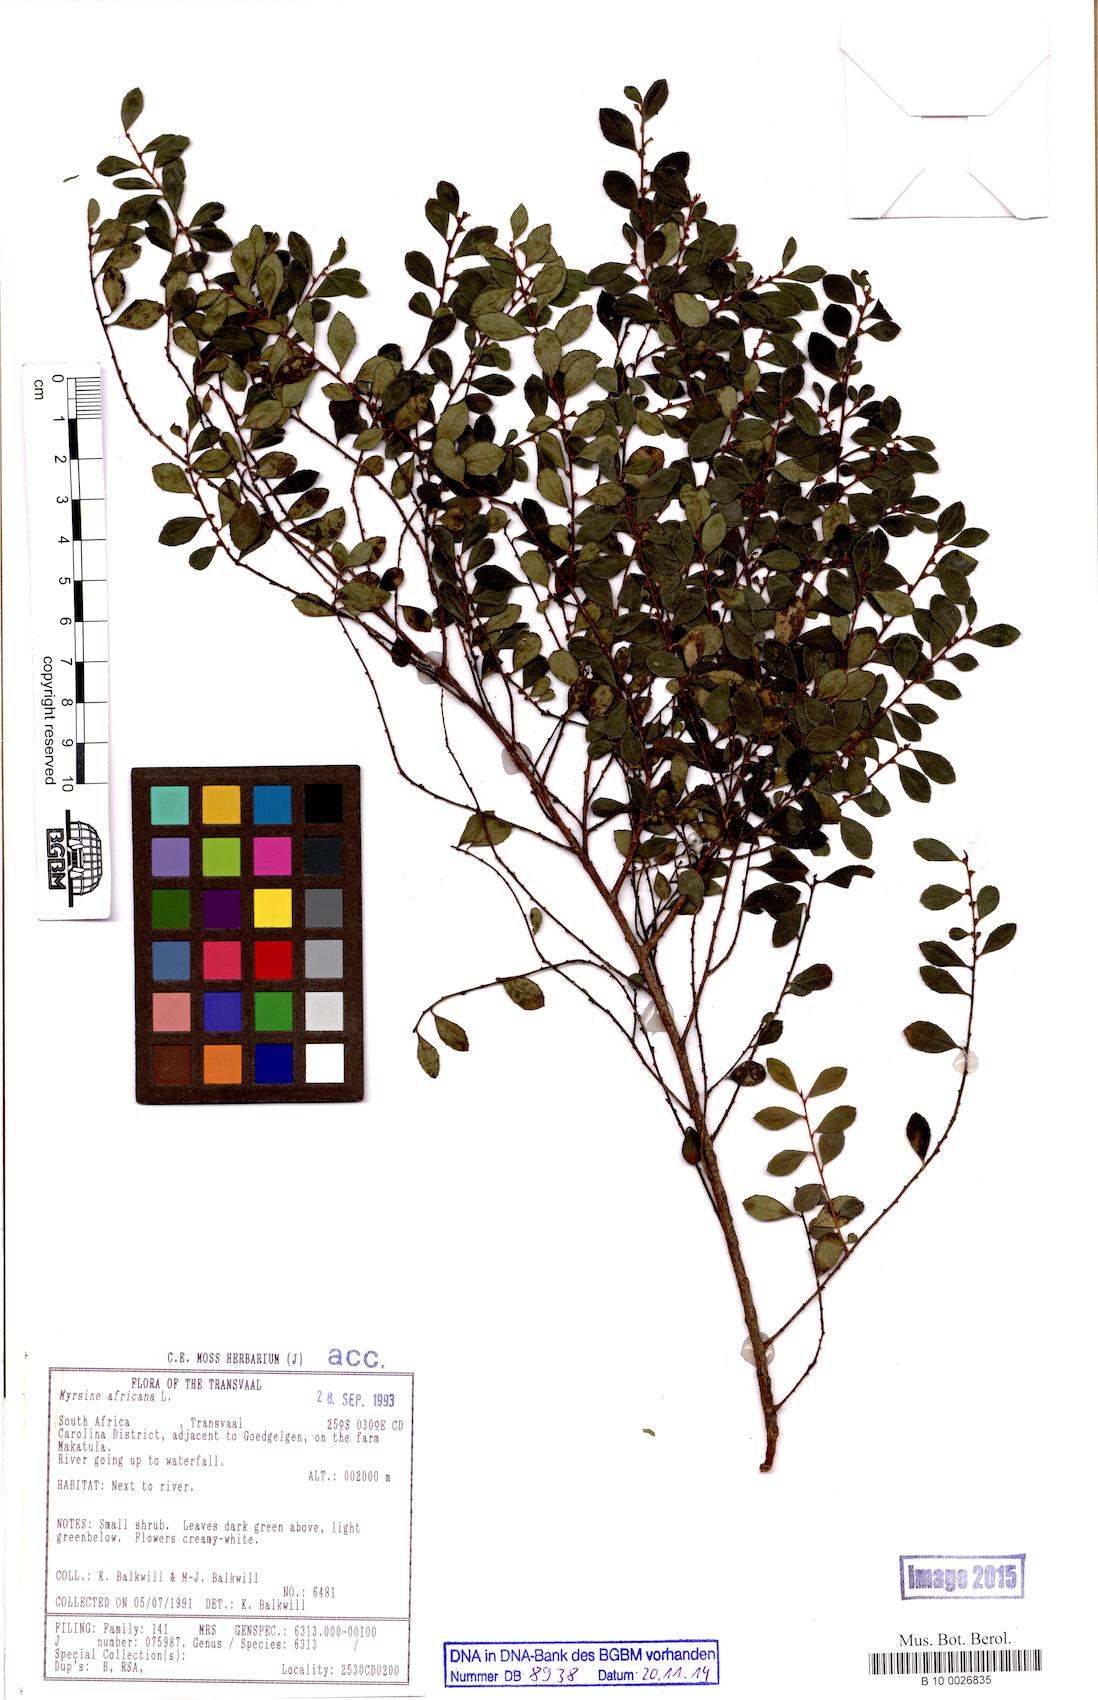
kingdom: Plantae
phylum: Tracheophyta
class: Magnoliopsida
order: Ericales
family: Primulaceae
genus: Myrsine
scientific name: Myrsine africana
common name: African-boxwood
